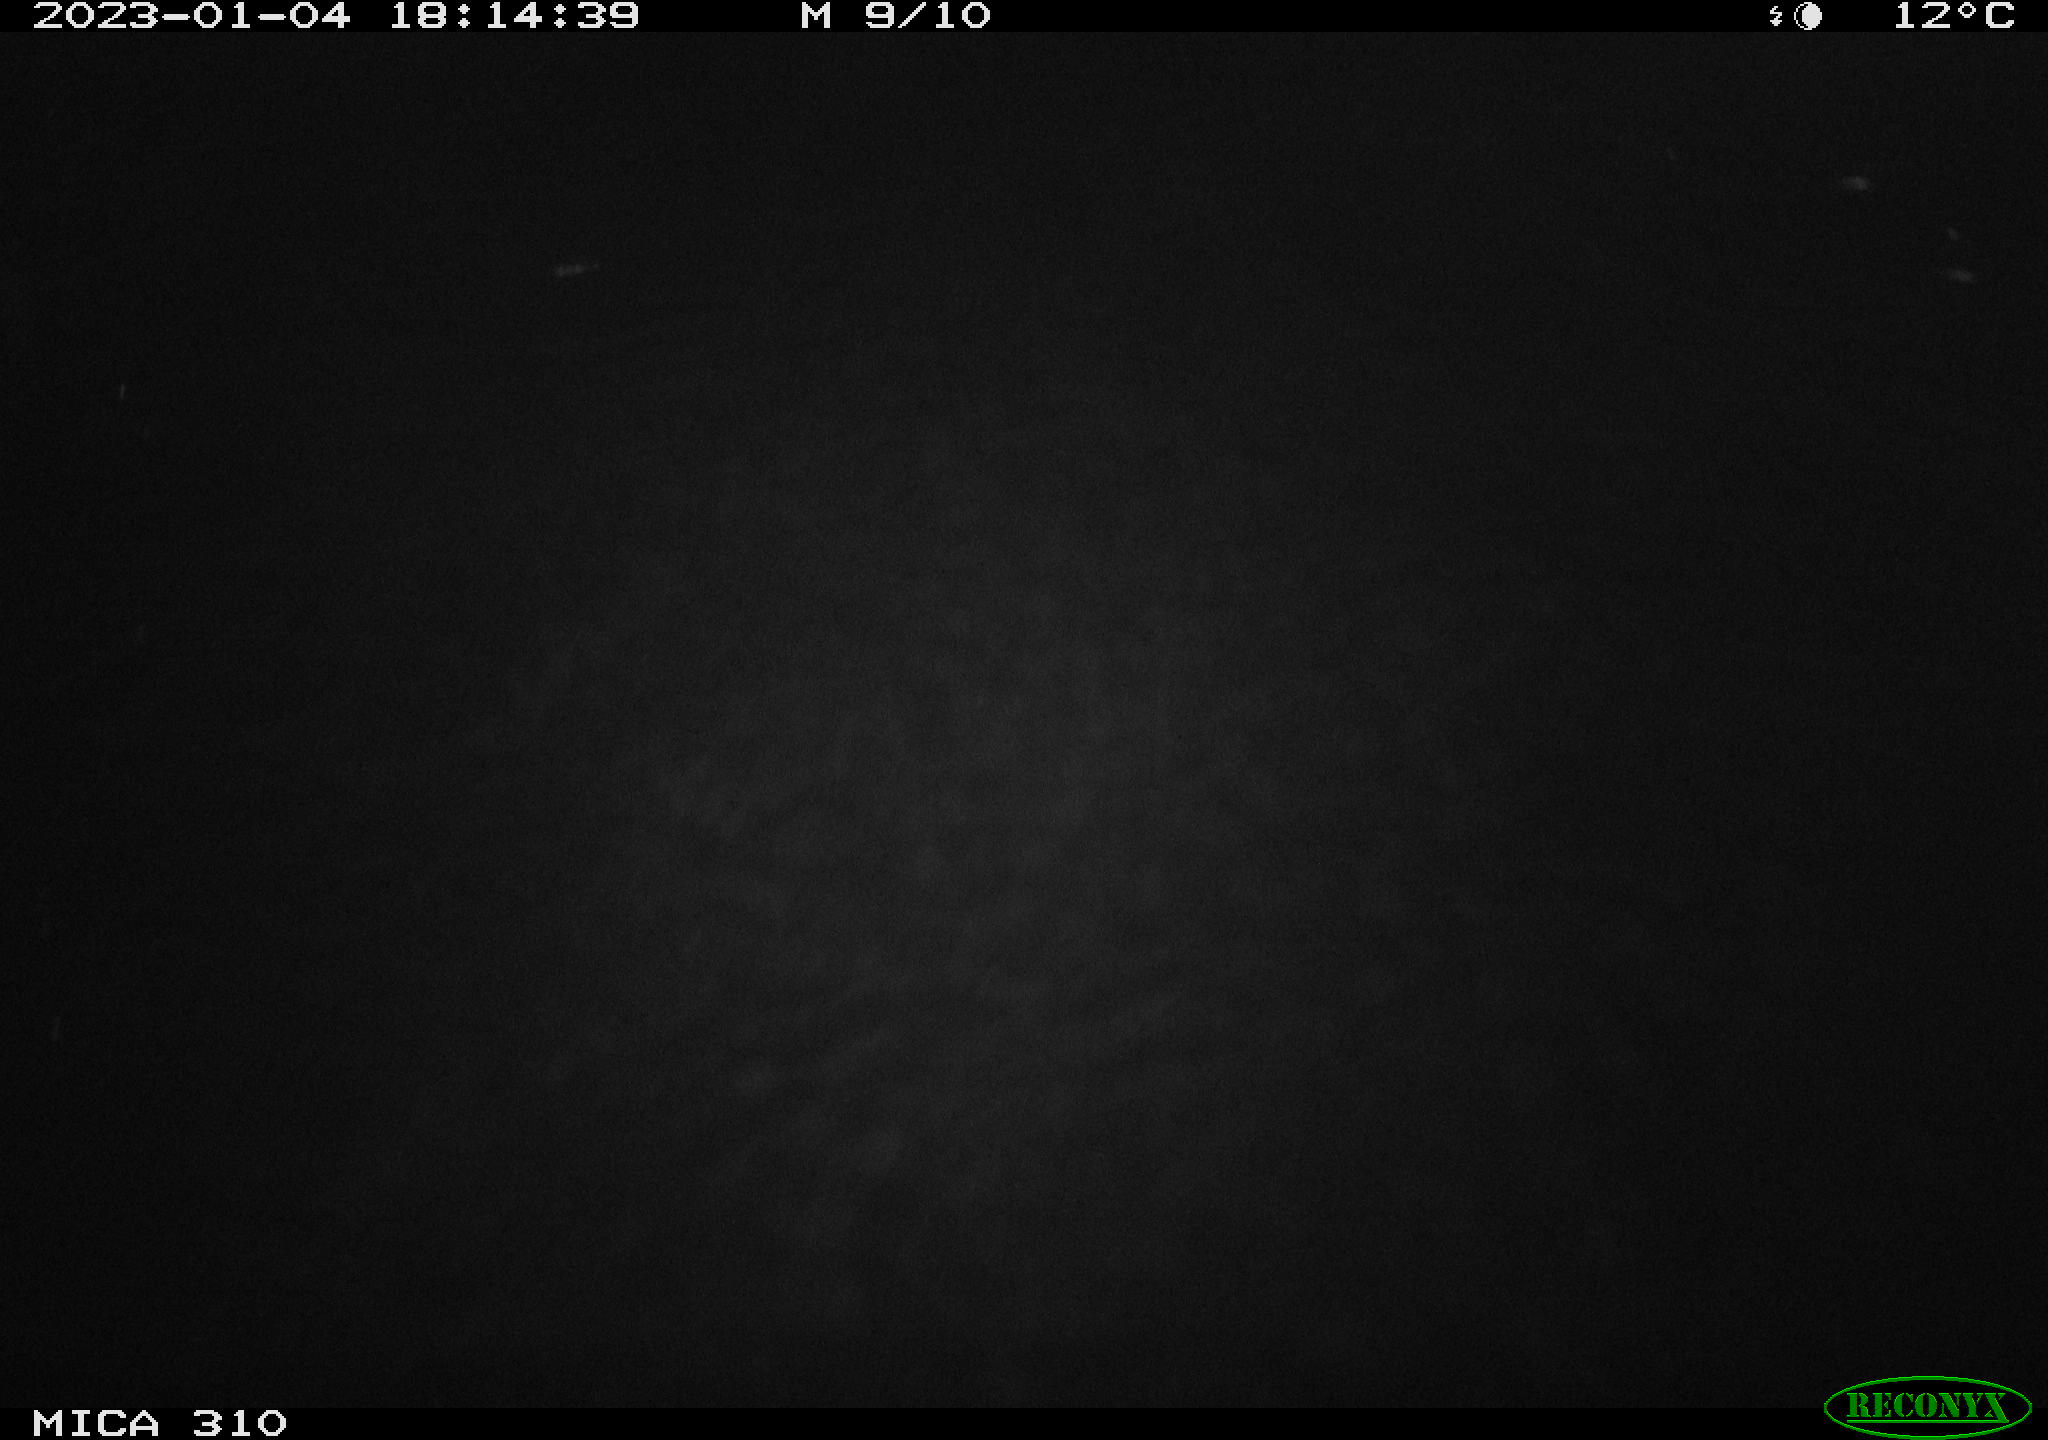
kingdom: Animalia
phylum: Chordata
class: Mammalia
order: Rodentia
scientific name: Rodentia
